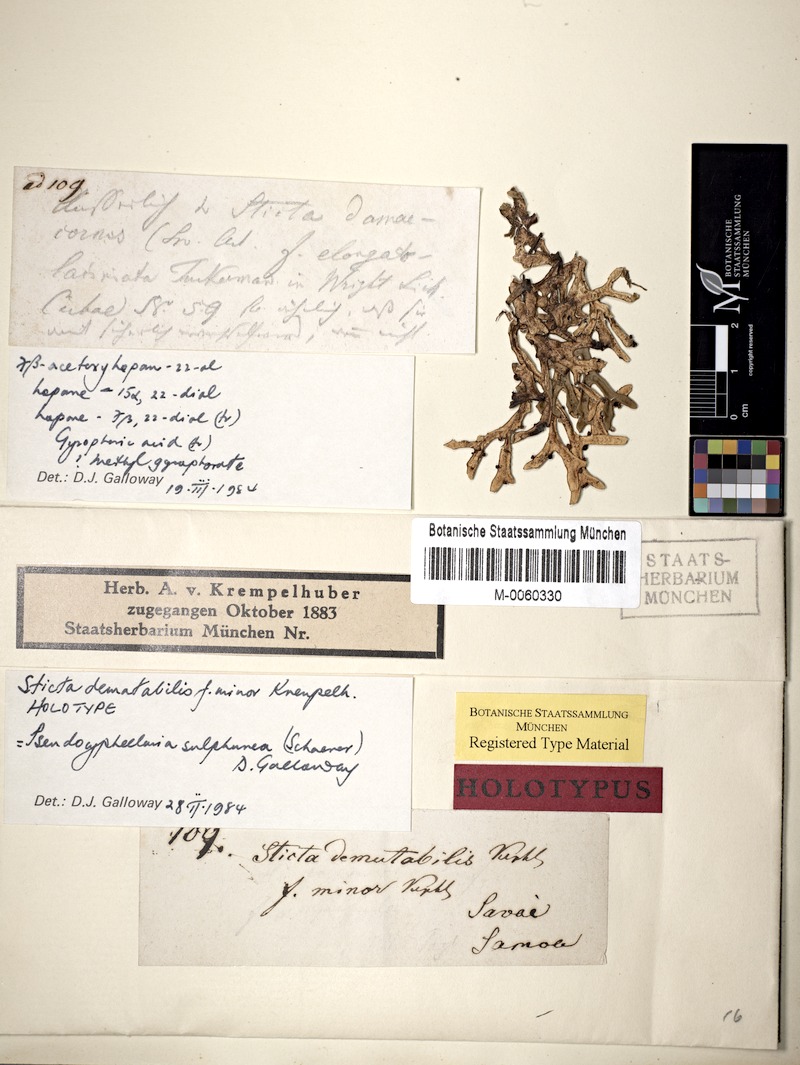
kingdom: Fungi
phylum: Ascomycota
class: Lecanoromycetes
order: Peltigerales
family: Lobariaceae
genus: Pseudocyphellaria
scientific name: Pseudocyphellaria sulphurea
